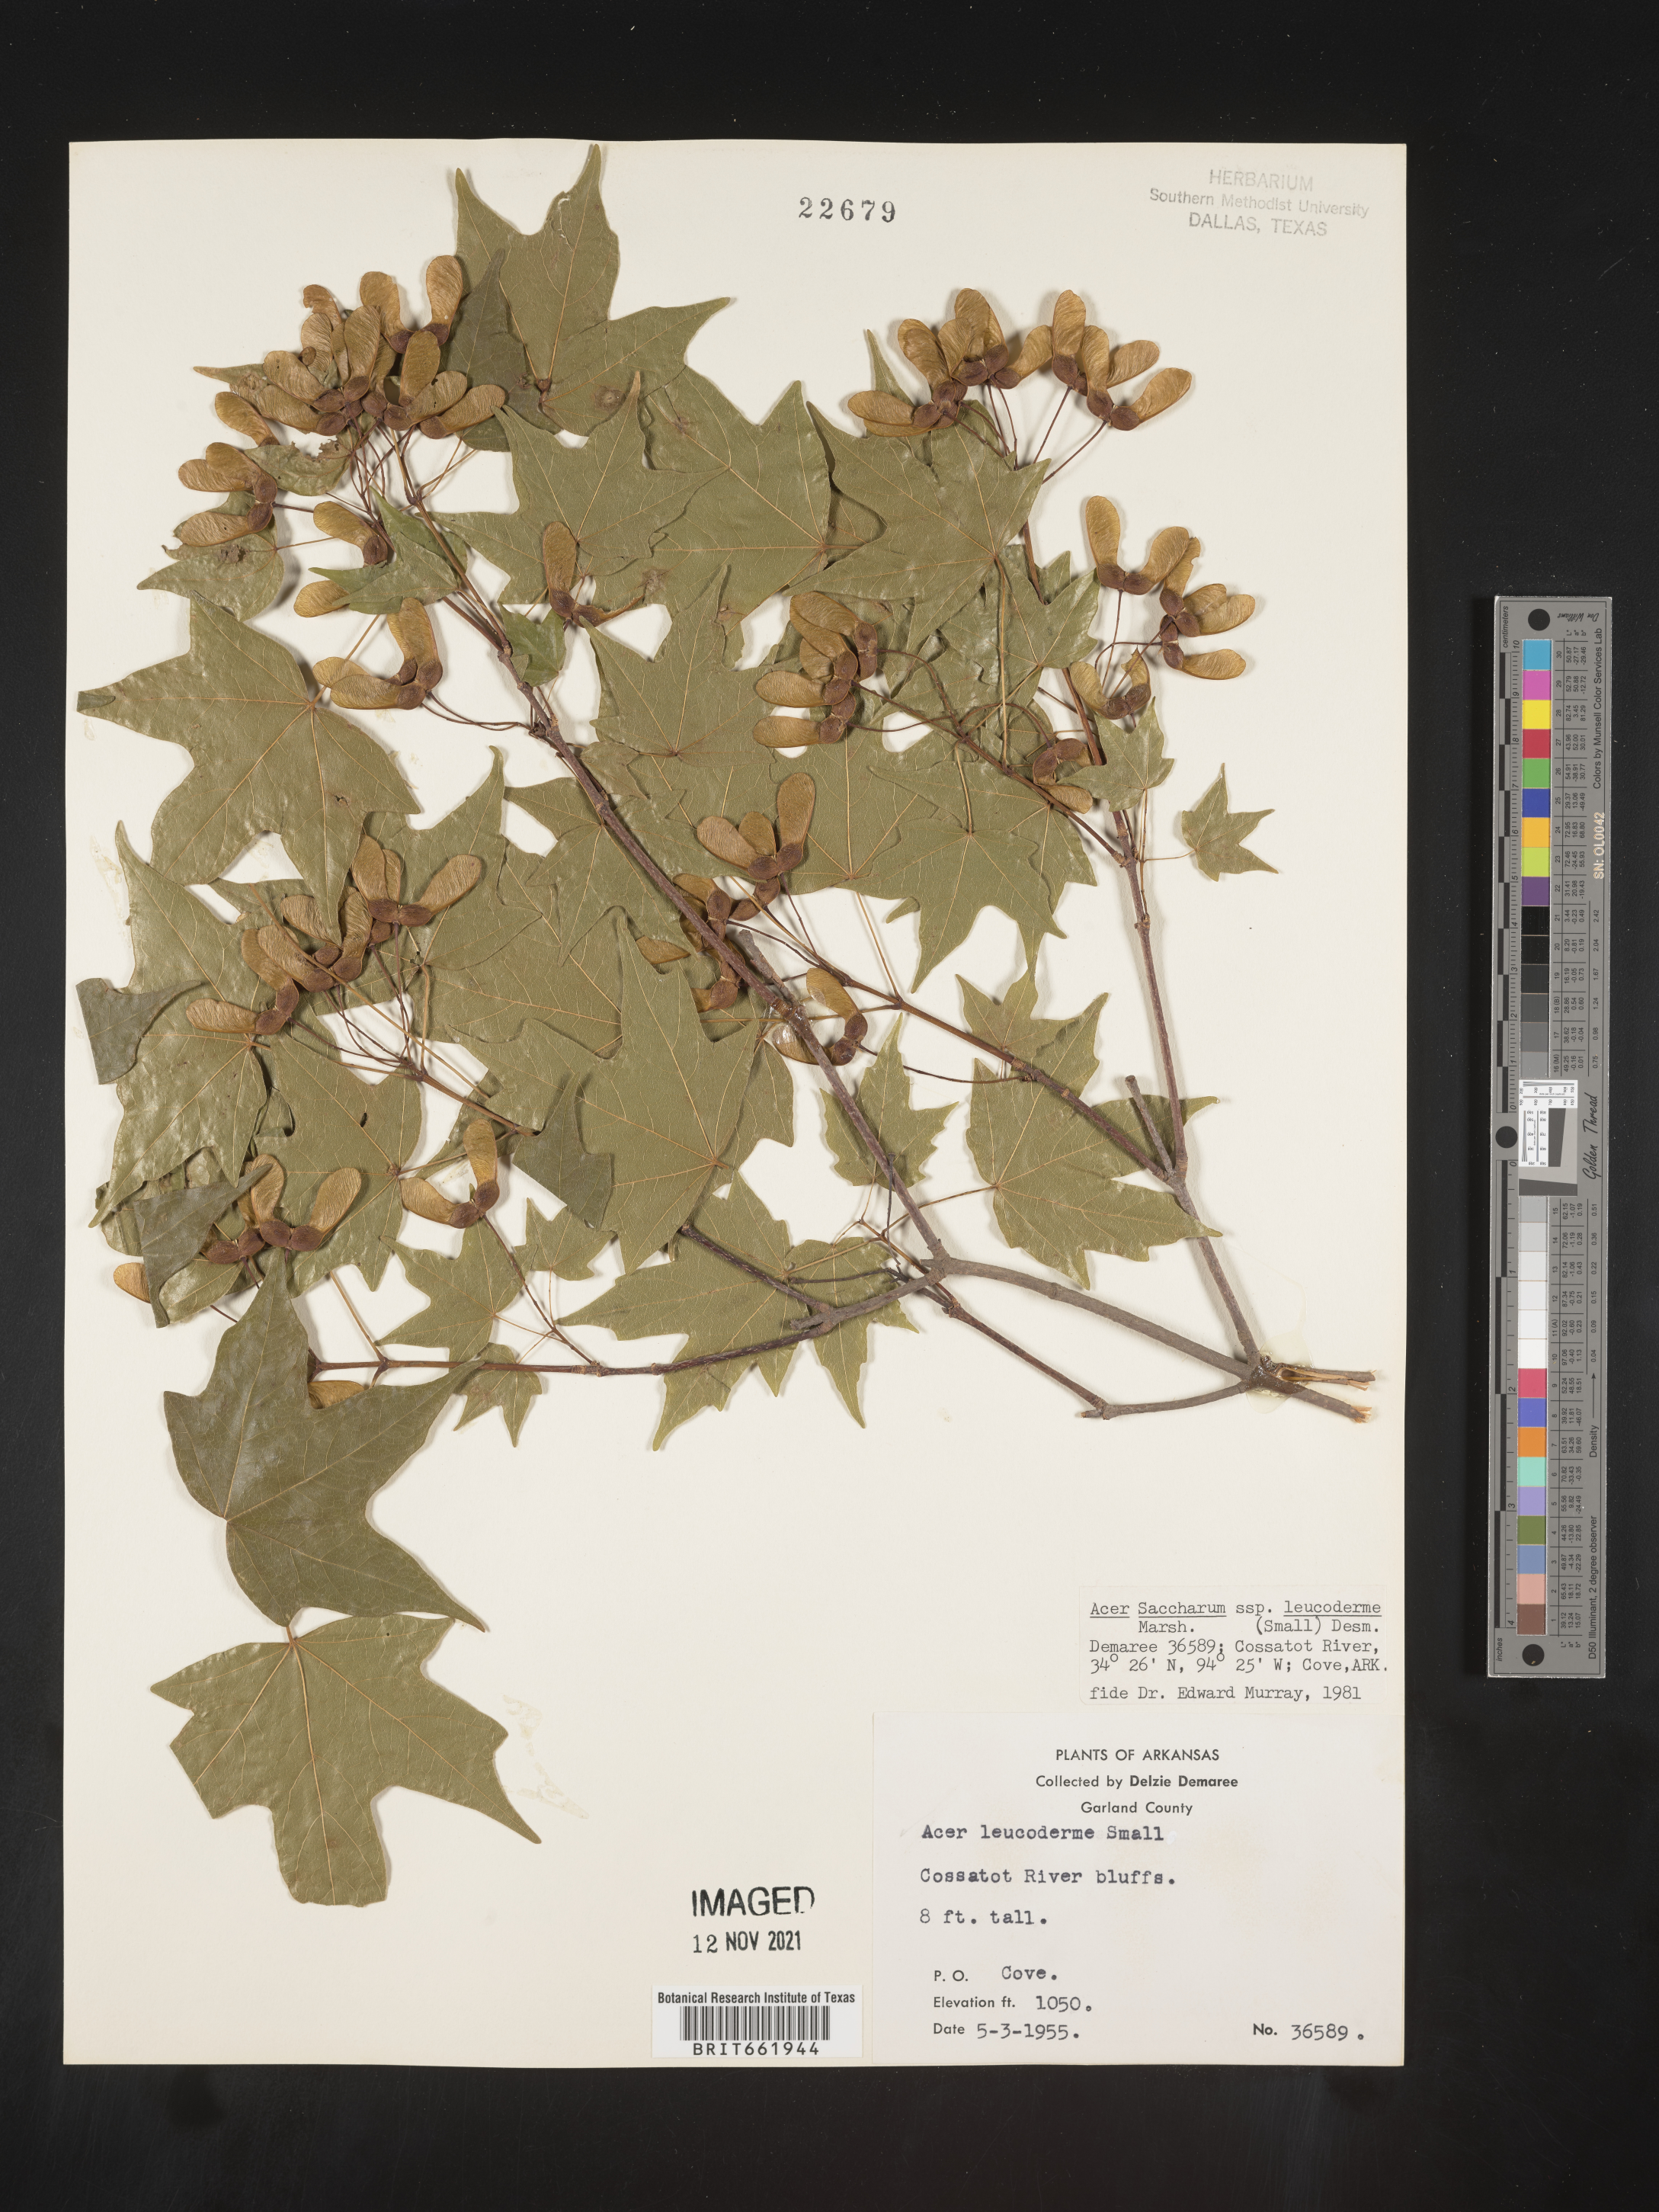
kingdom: Plantae
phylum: Tracheophyta
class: Magnoliopsida
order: Sapindales
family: Sapindaceae
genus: Acer
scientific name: Acer leucoderme
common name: Chalk maple
